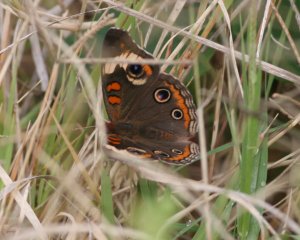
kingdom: Animalia
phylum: Arthropoda
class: Insecta
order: Lepidoptera
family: Nymphalidae
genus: Junonia
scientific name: Junonia coenia
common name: Common Buckeye
